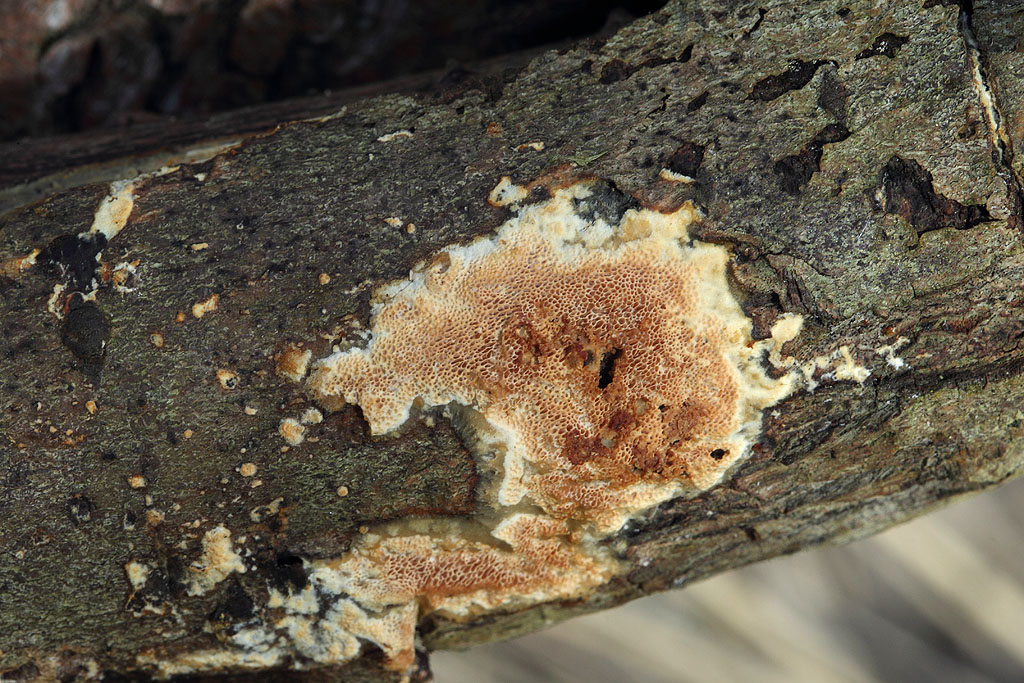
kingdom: Fungi
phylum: Basidiomycota
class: Agaricomycetes
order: Polyporales
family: Irpicaceae
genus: Resiniporus
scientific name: Resiniporus resinascens
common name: trist pastelporesvamp
